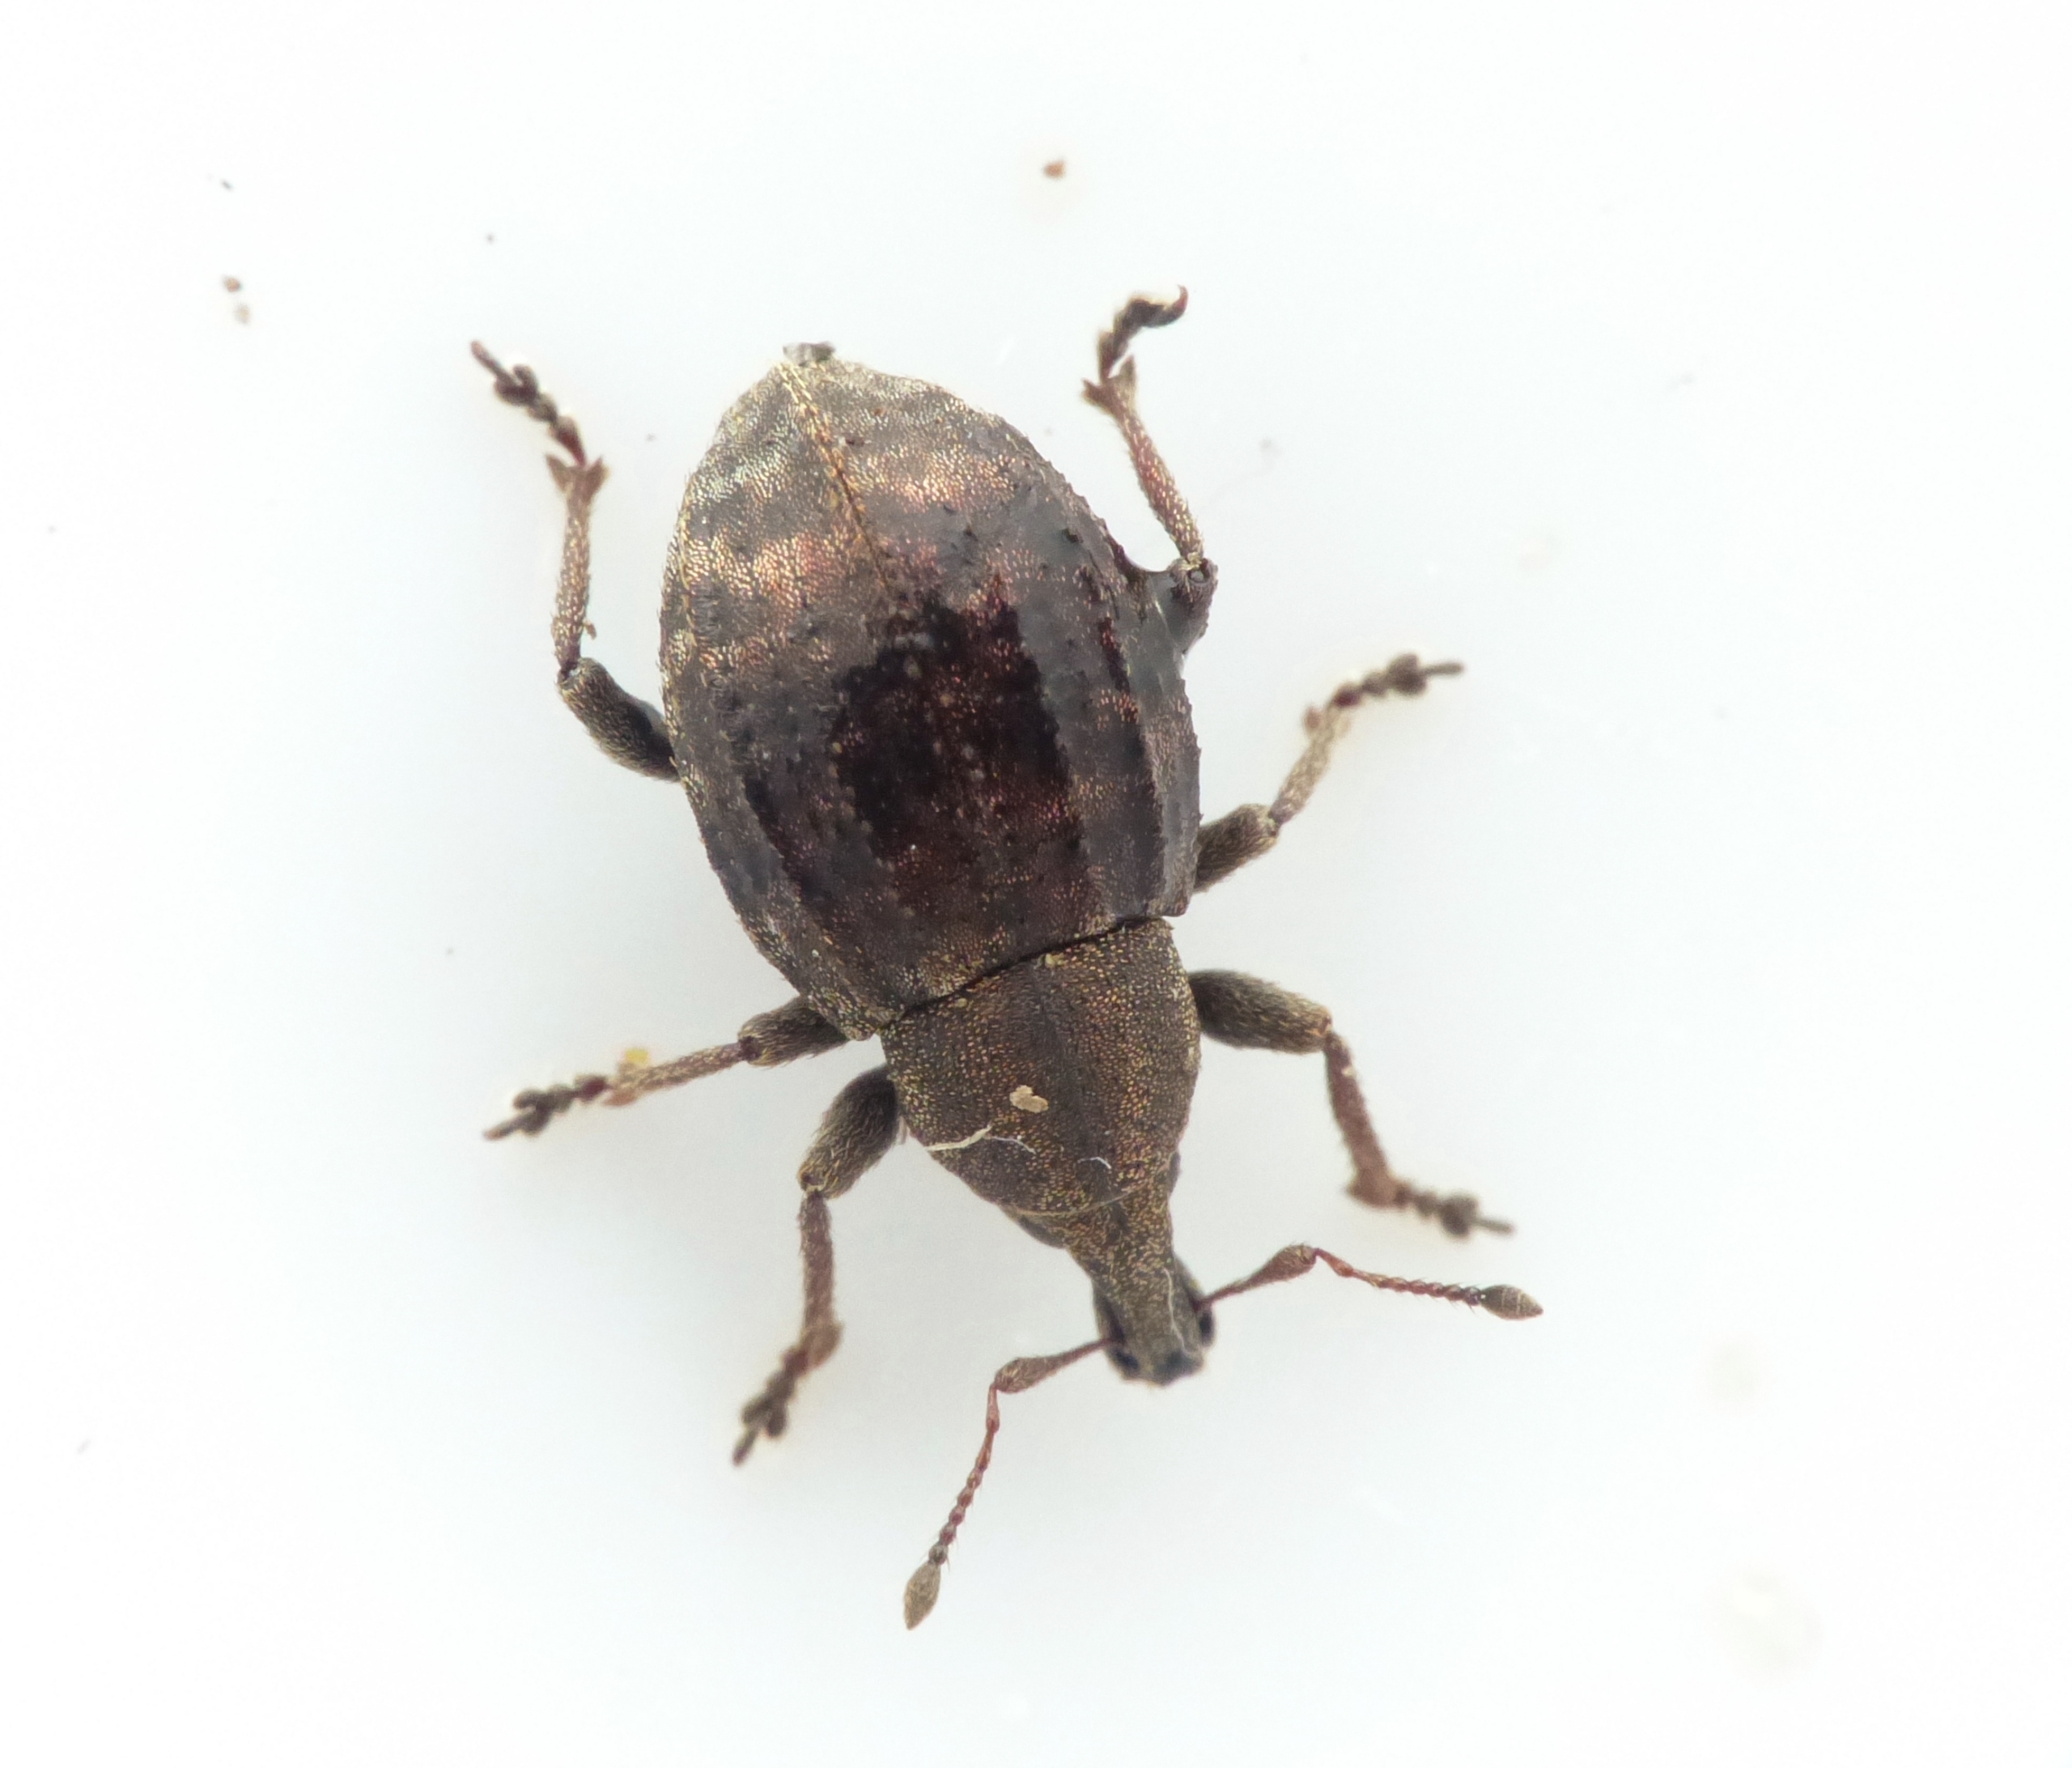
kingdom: Animalia
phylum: Arthropoda
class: Insecta
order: Coleoptera
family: Curculionidae
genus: Tropiphorus
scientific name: Tropiphorus elevatus
